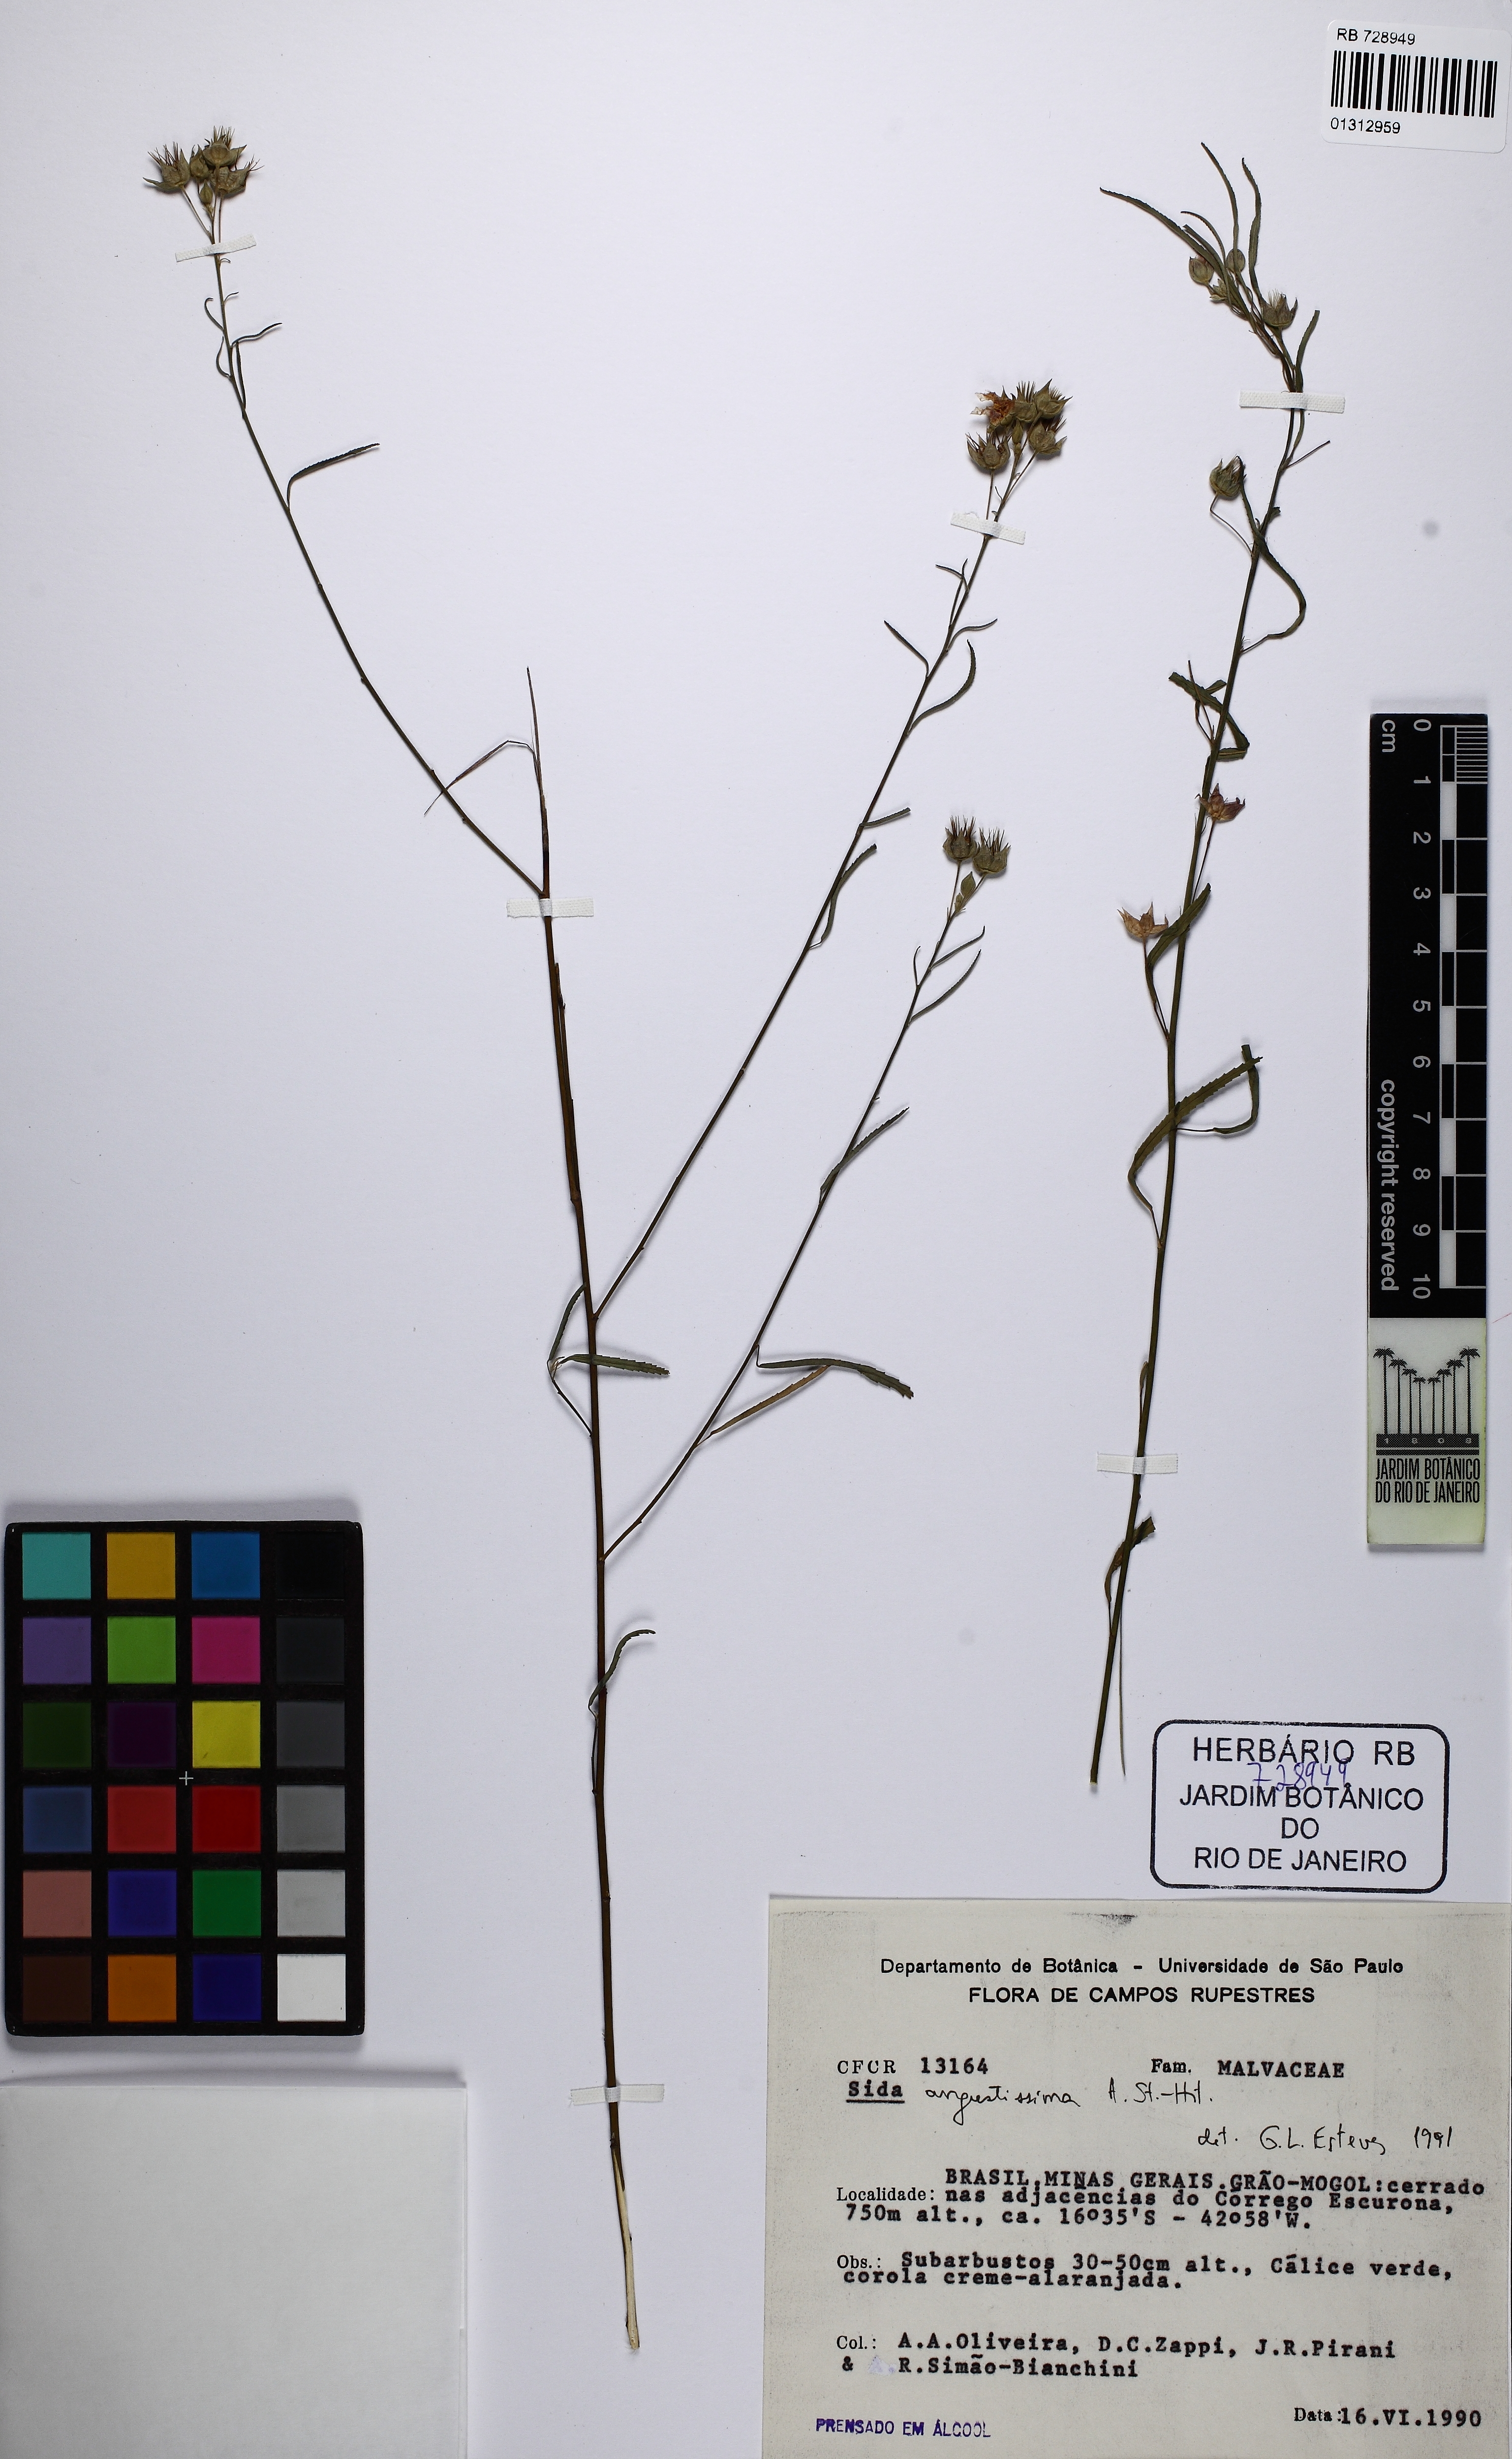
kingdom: Plantae
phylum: Tracheophyta
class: Magnoliopsida
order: Malvales
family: Malvaceae
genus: Sida
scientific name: Sida angustissima
